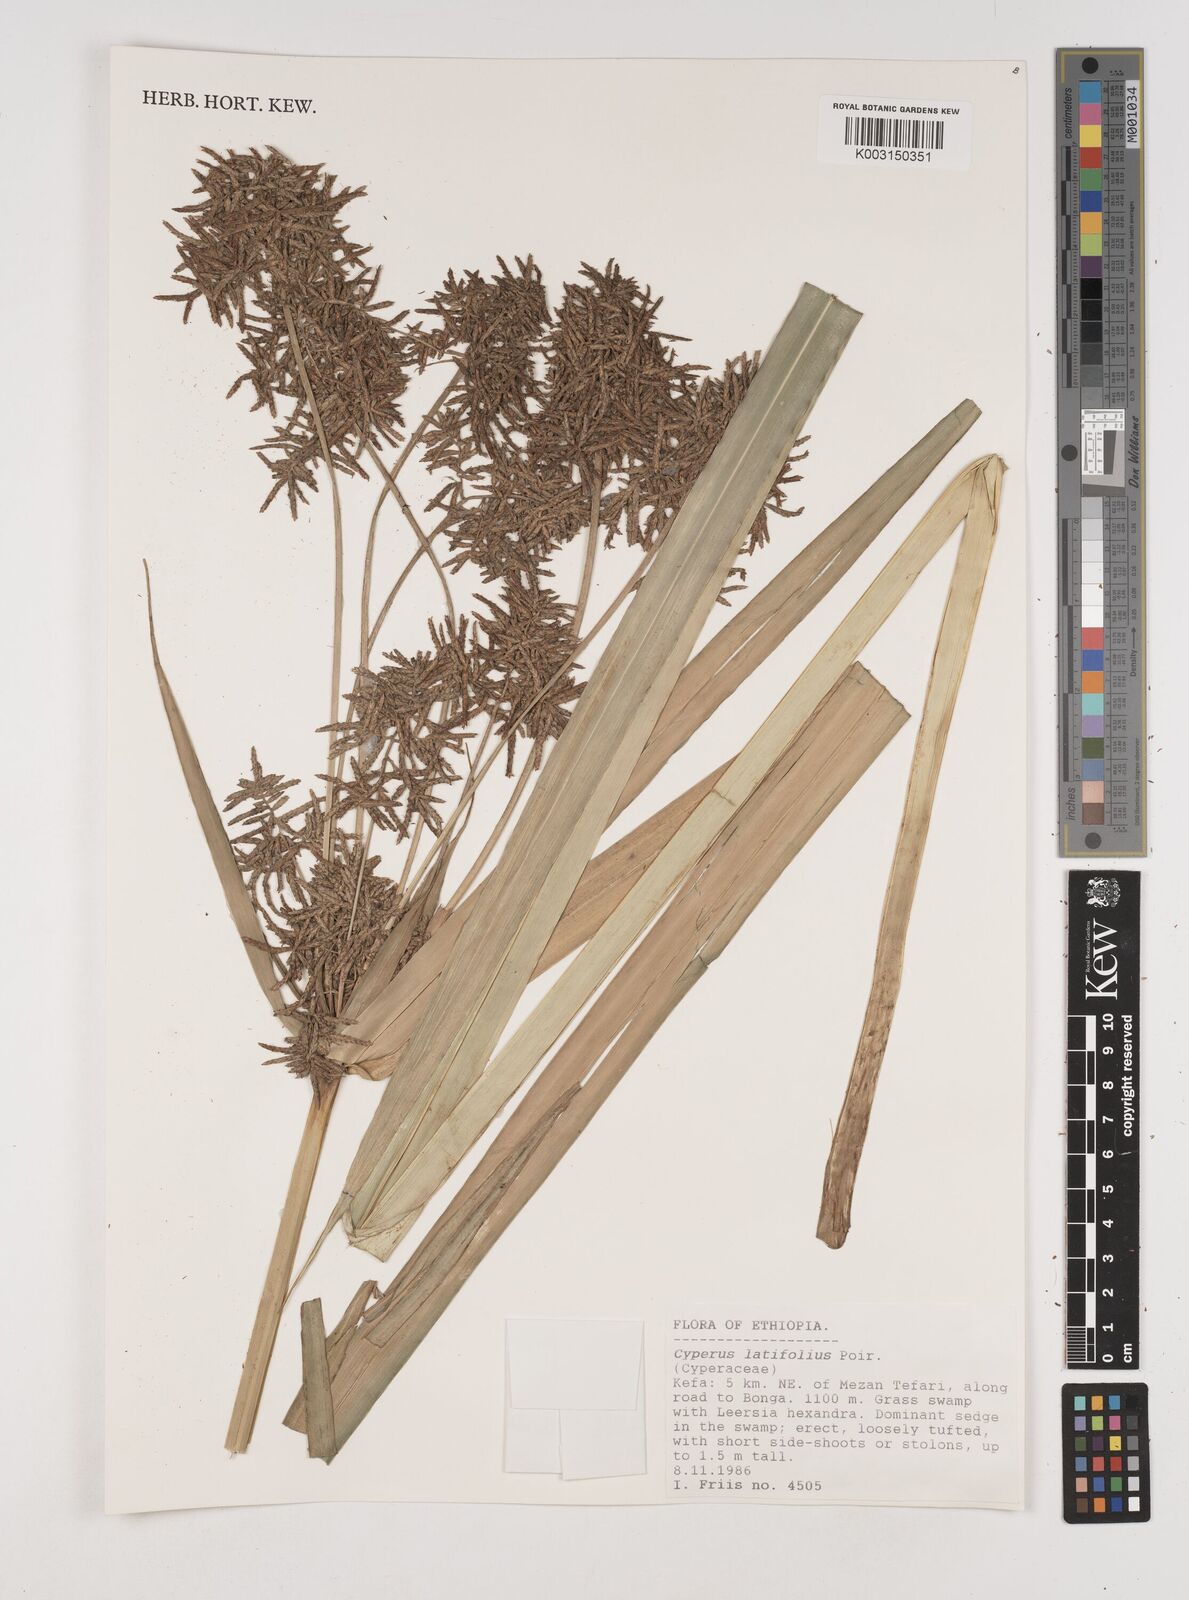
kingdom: Plantae
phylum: Tracheophyta
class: Liliopsida
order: Poales
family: Cyperaceae
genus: Cyperus
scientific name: Cyperus latifolius
